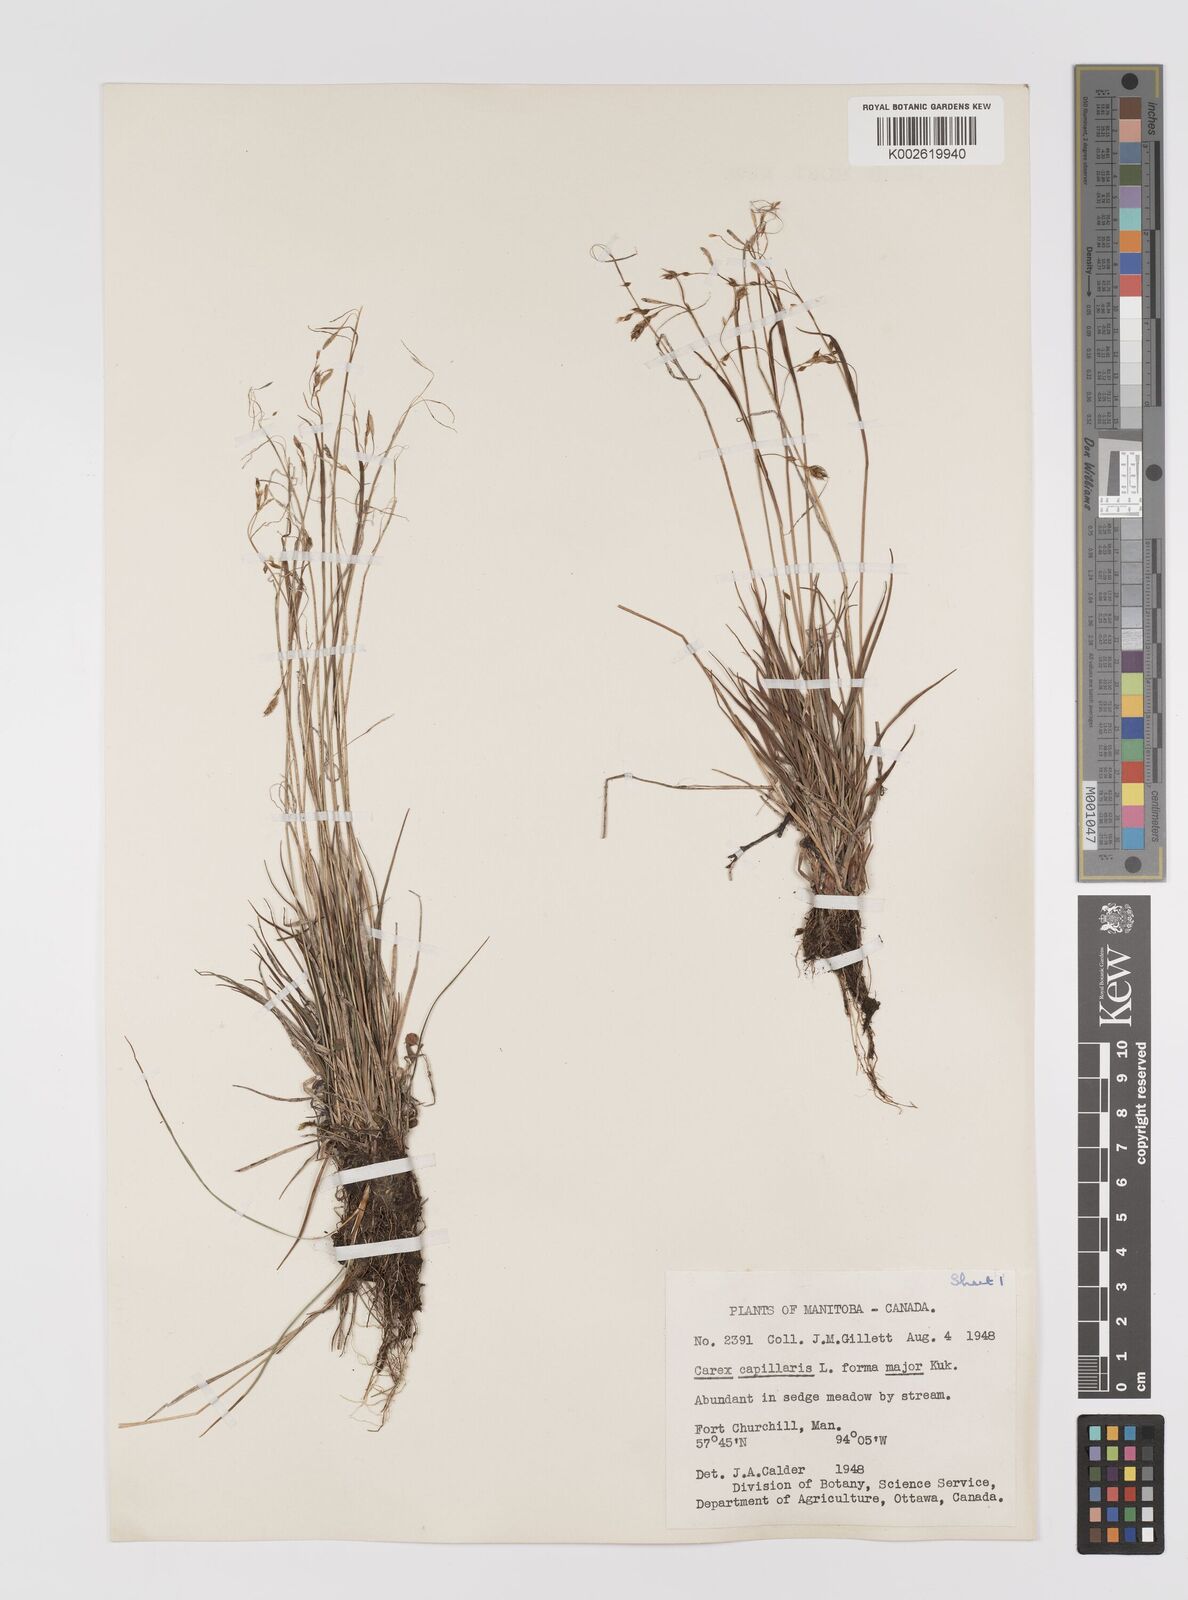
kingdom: Plantae
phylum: Tracheophyta
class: Liliopsida
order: Poales
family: Cyperaceae
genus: Carex
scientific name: Carex capillaris
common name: Hair sedge
